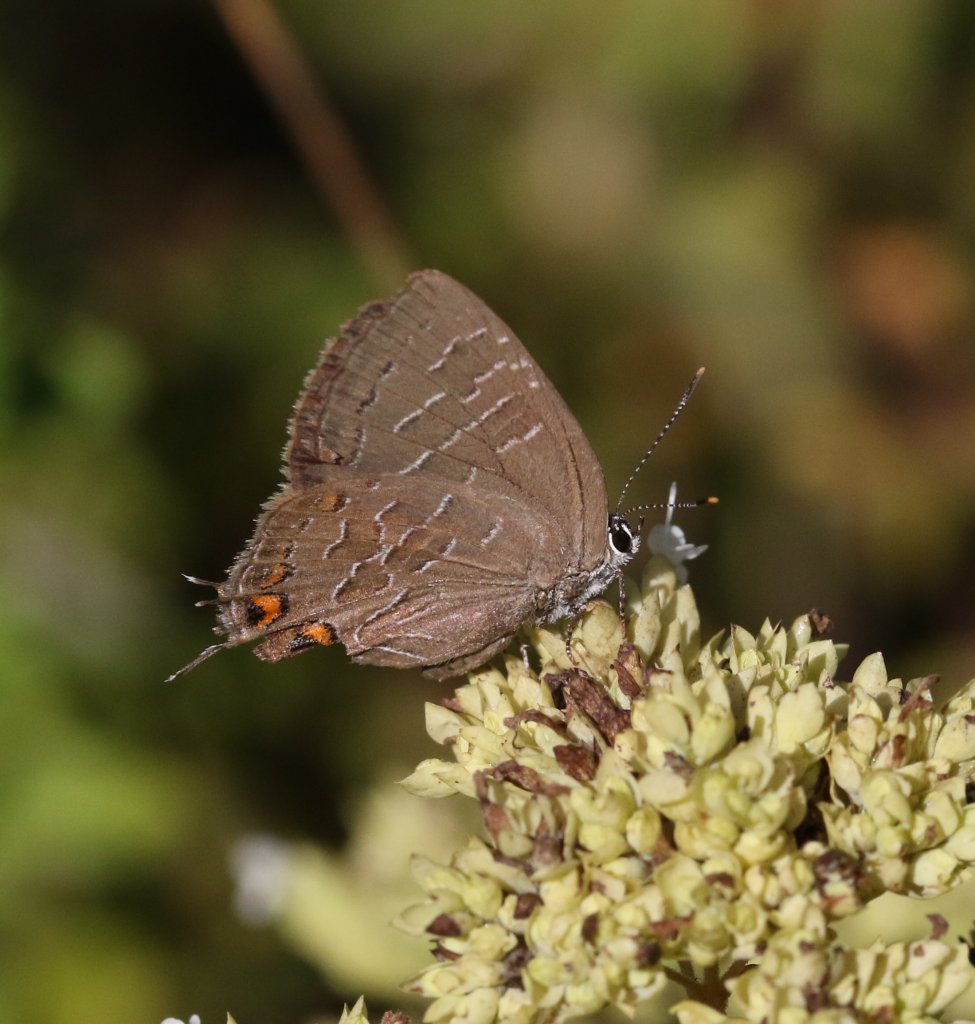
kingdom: Animalia
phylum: Arthropoda
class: Insecta
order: Lepidoptera
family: Lycaenidae
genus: Satyrium
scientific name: Satyrium liparops
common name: Striped Hairstreak
